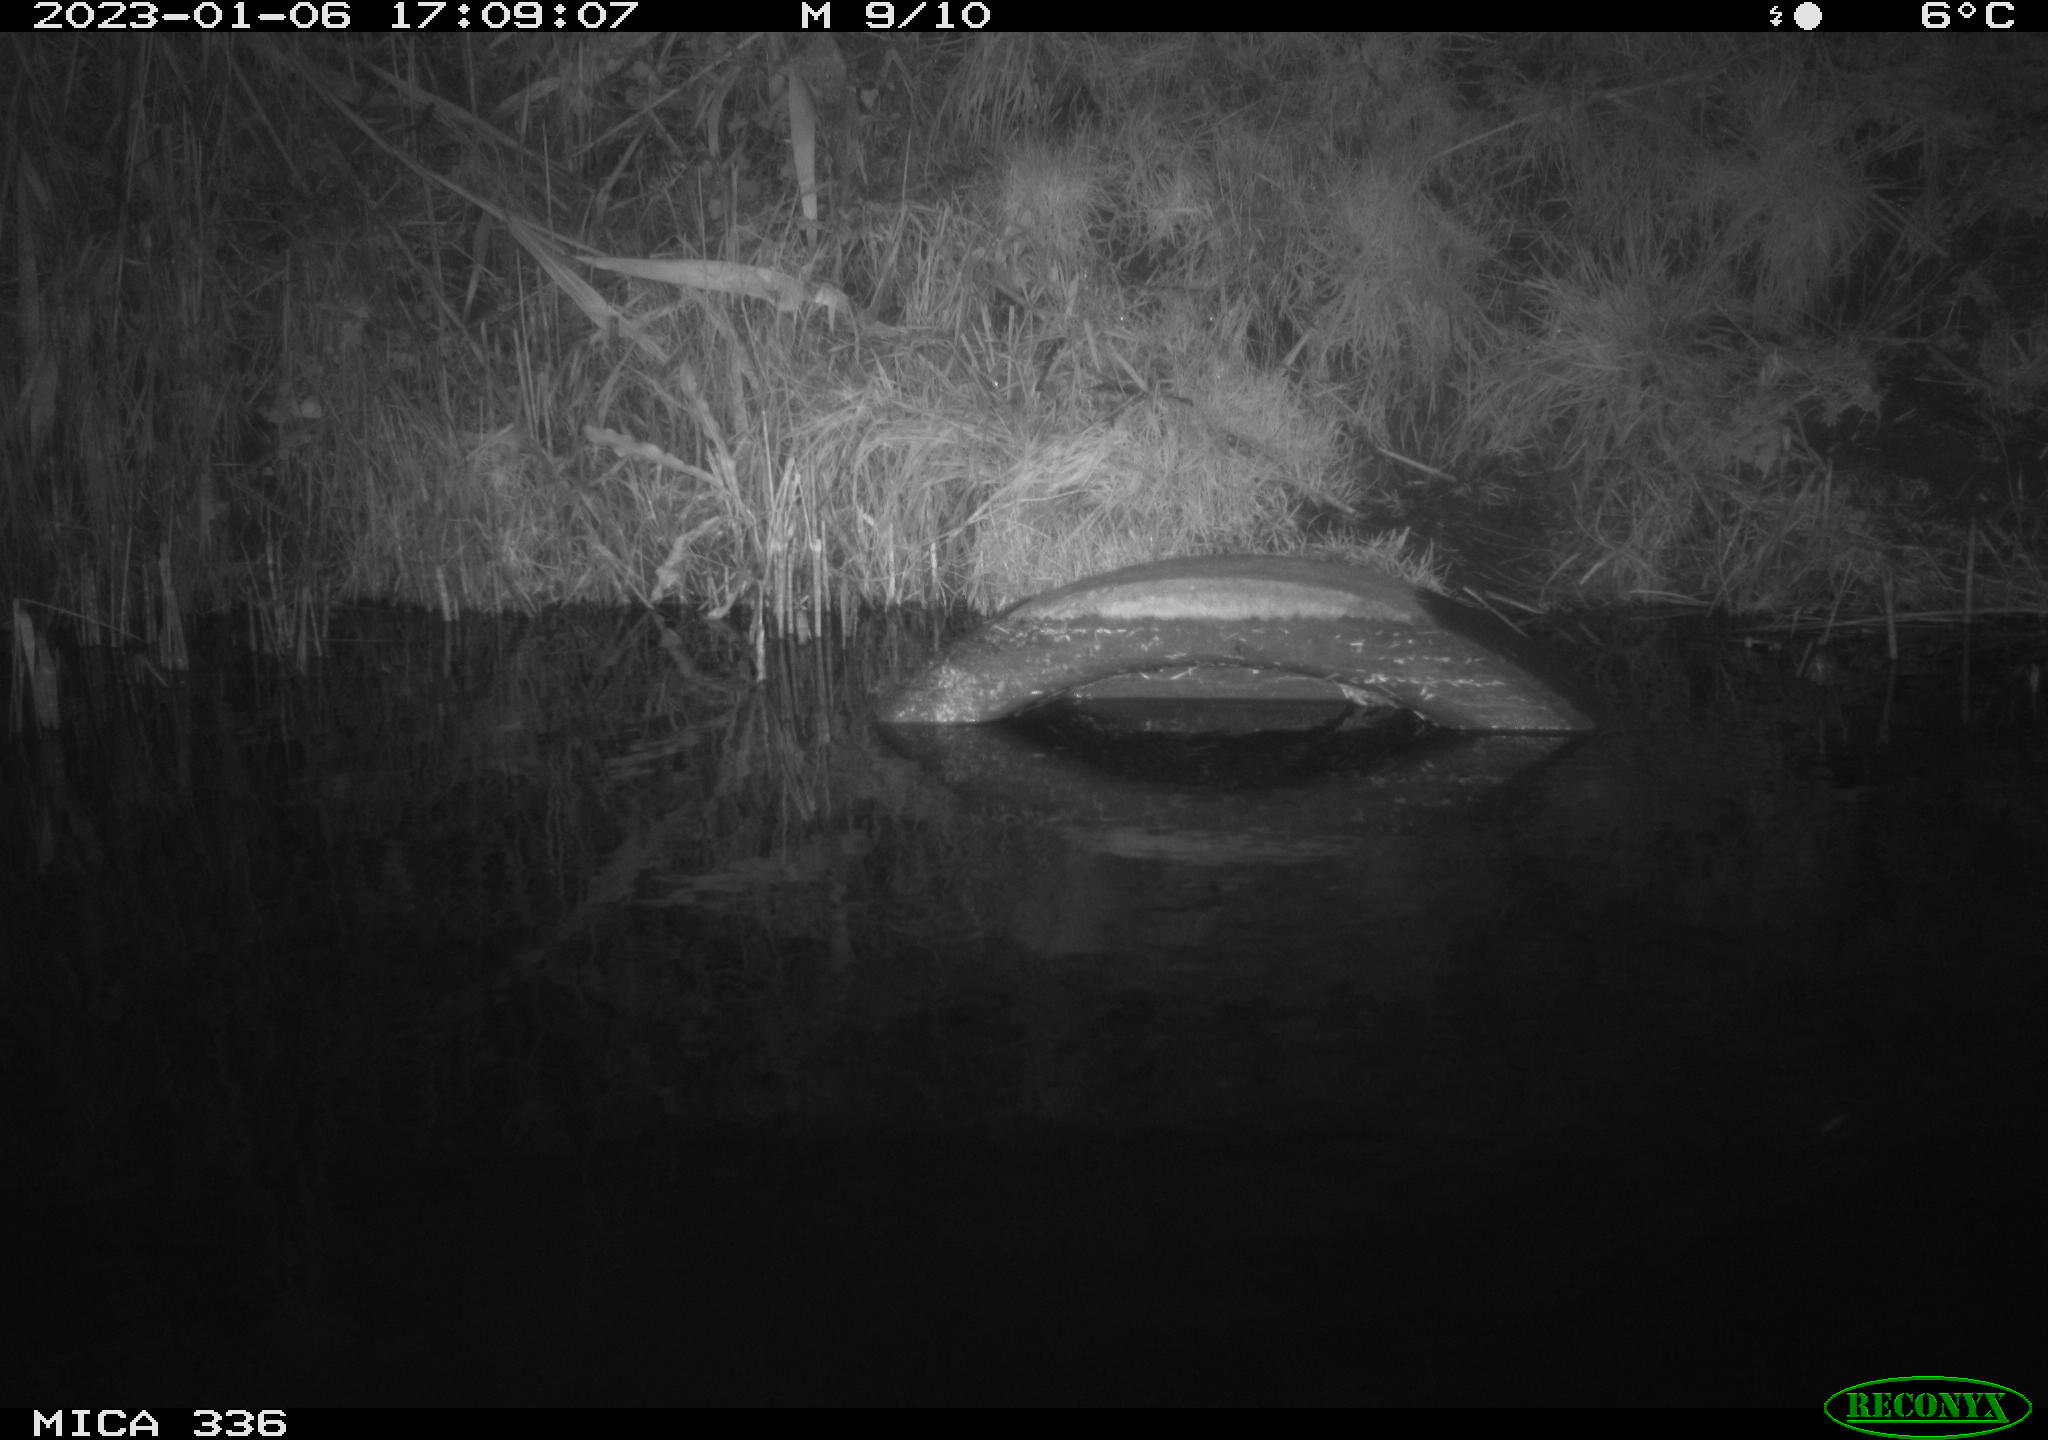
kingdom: Animalia
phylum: Chordata
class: Aves
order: Pelecaniformes
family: Ardeidae
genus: Ardea
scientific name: Ardea cinerea
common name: Grey heron
